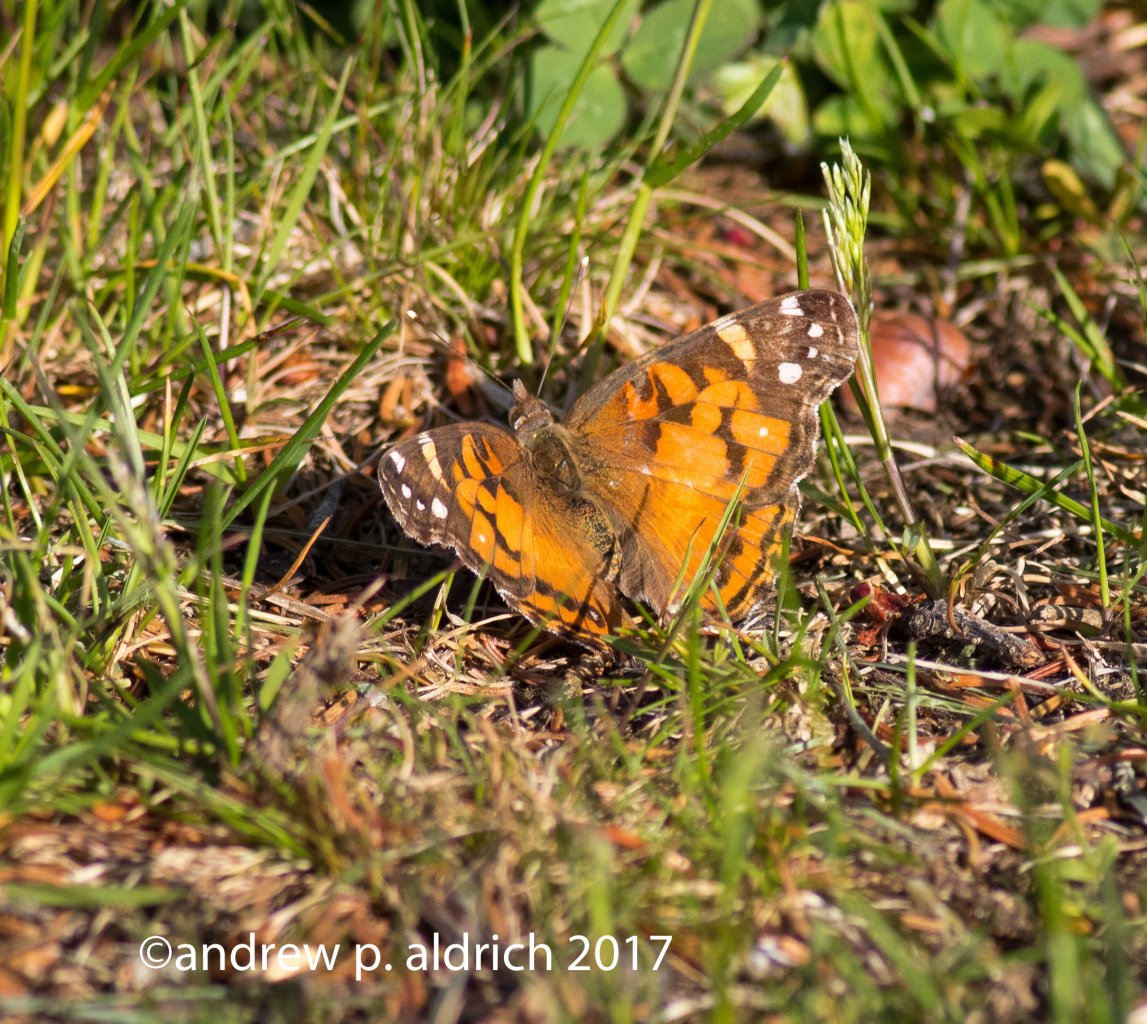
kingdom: Animalia
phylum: Arthropoda
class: Insecta
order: Lepidoptera
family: Nymphalidae
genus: Vanessa
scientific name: Vanessa virginiensis
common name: American Lady
